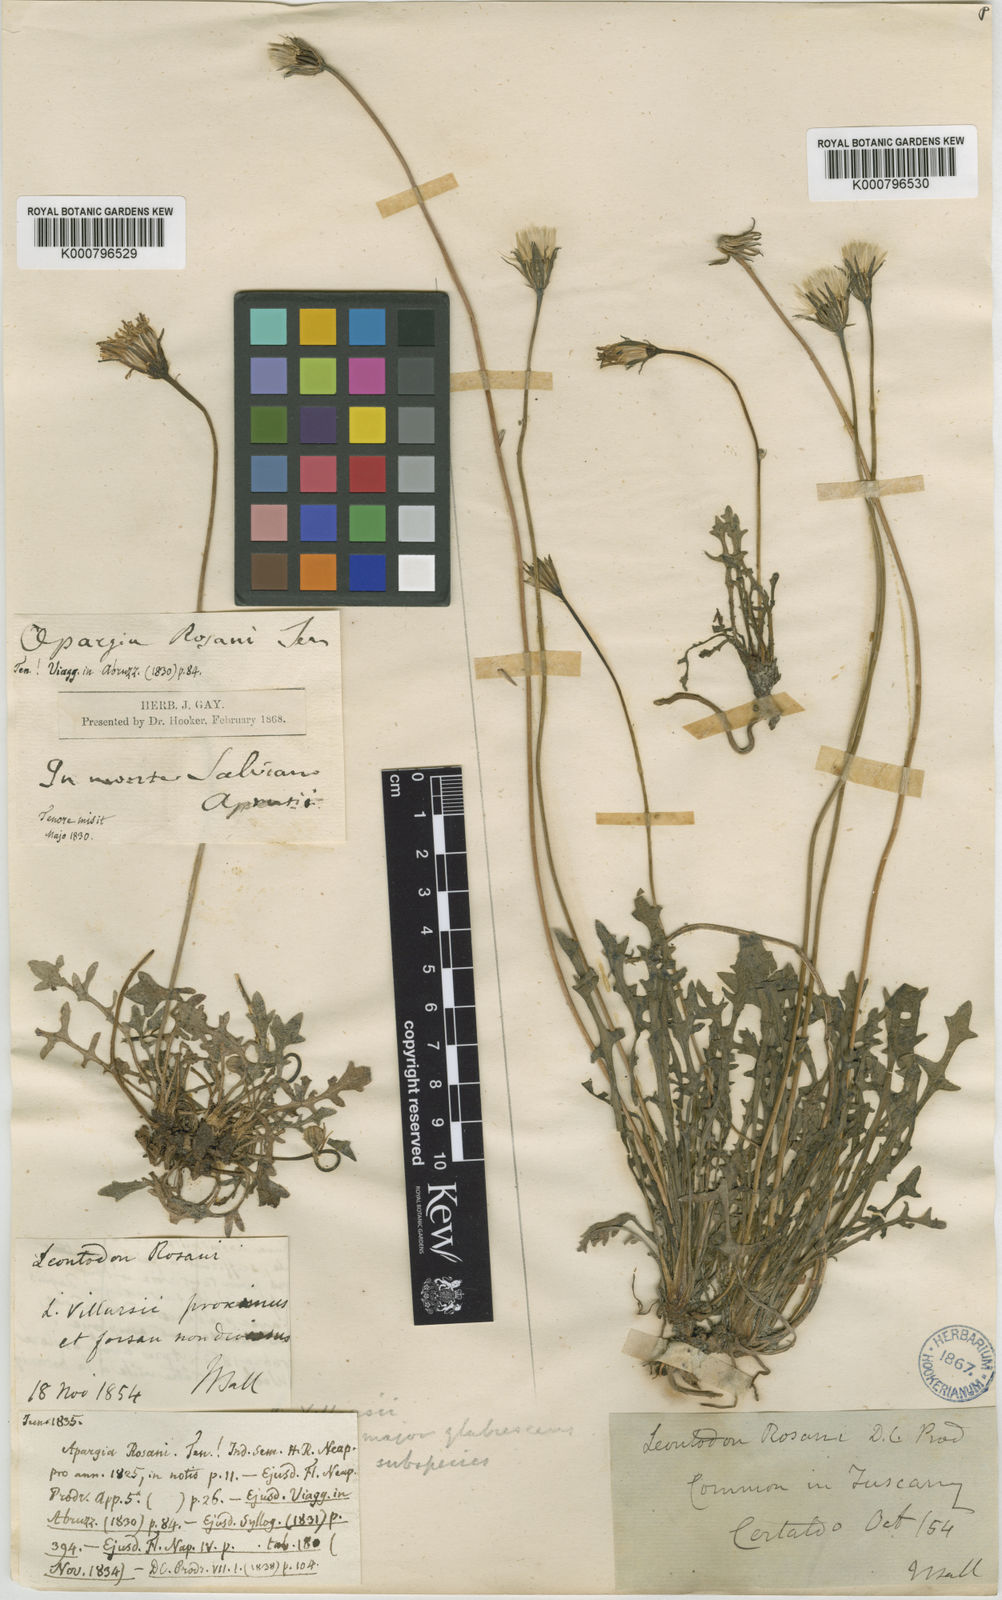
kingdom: Plantae
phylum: Tracheophyta
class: Magnoliopsida
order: Asterales
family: Asteraceae
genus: Leontodon
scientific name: Leontodon hirtus
